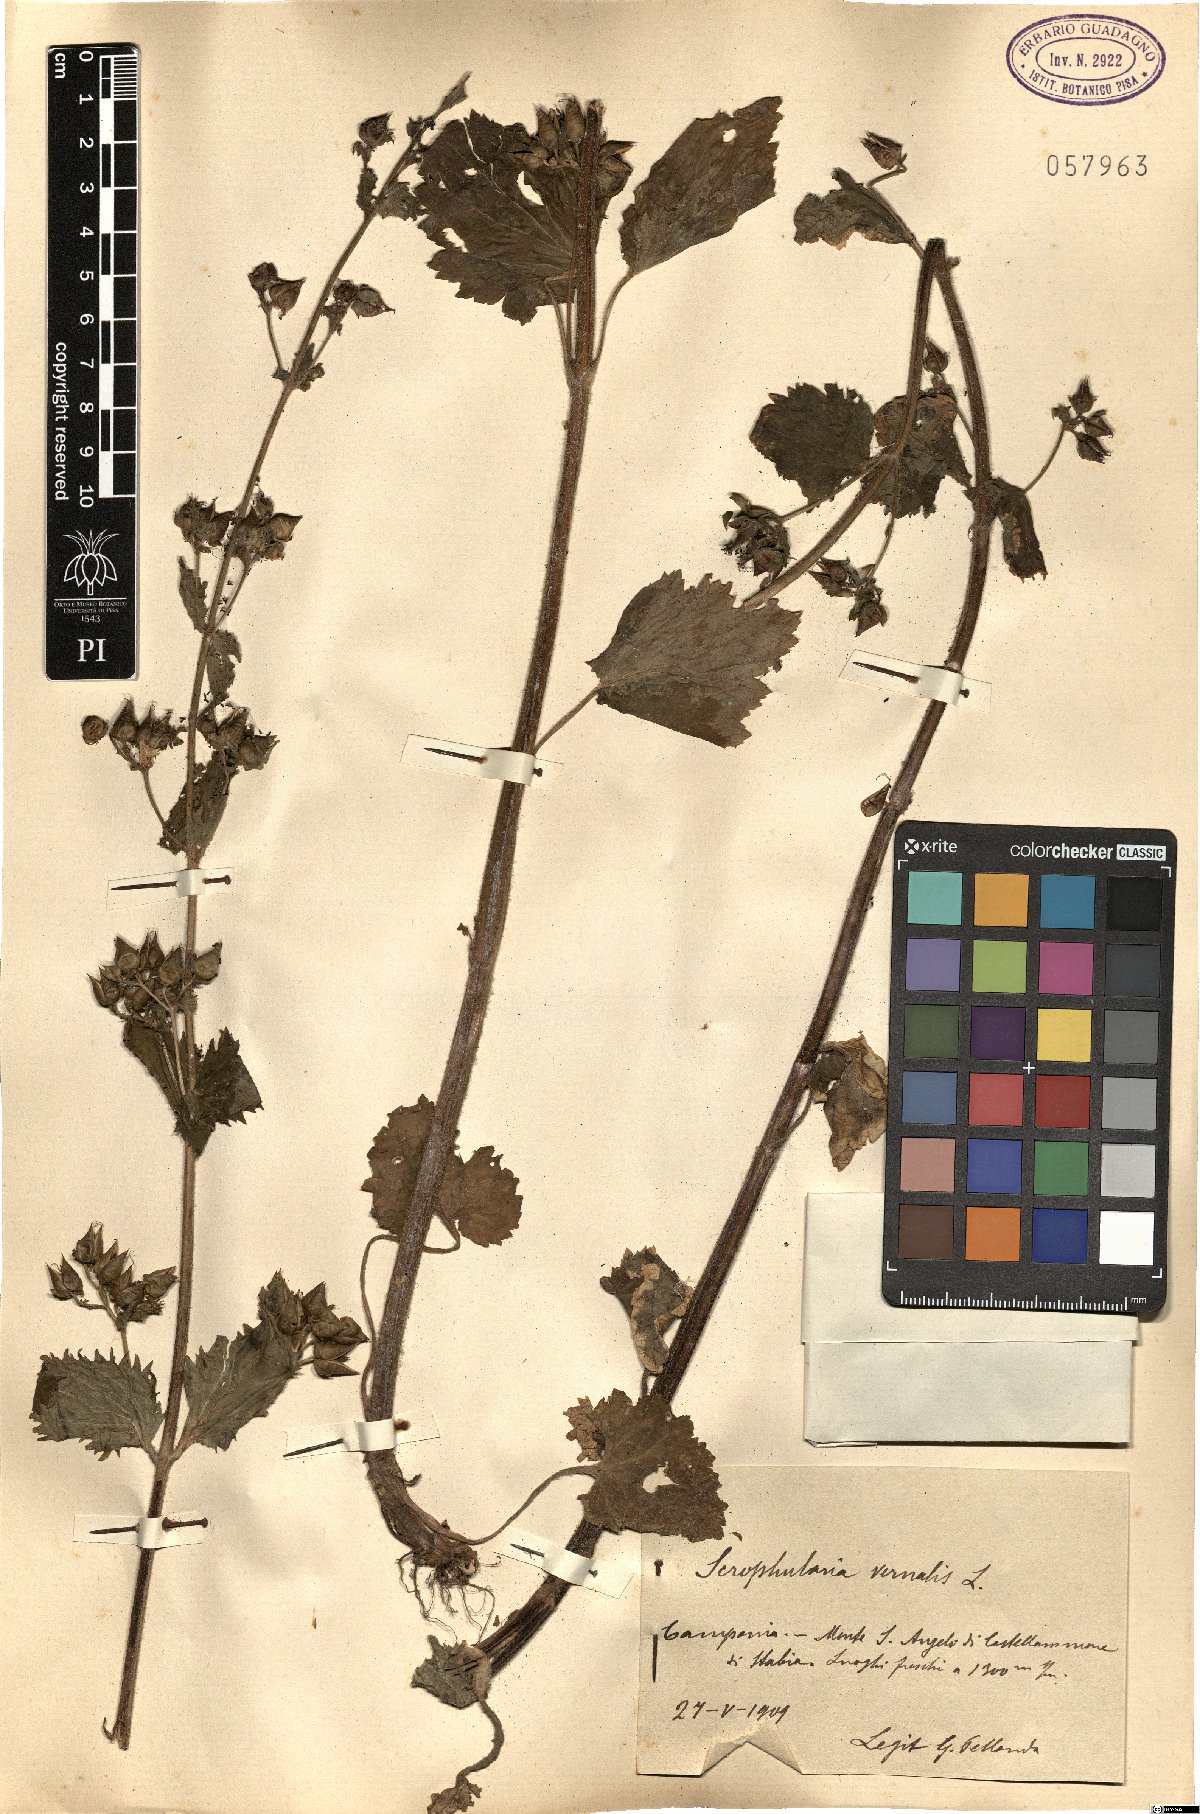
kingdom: Plantae
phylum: Tracheophyta
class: Magnoliopsida
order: Lamiales
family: Scrophulariaceae
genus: Scrophularia
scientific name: Scrophularia vernalis
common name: Yellow figwort
